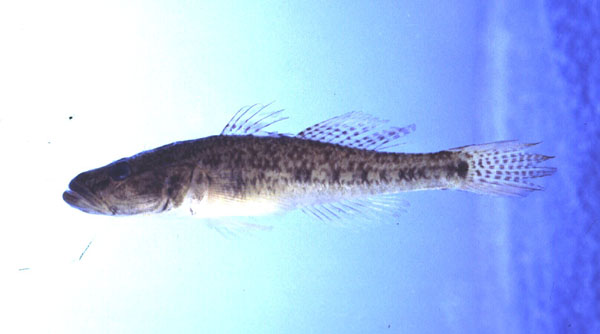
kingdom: Animalia
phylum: Chordata
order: Perciformes
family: Gobiidae
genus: Glossogobius
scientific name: Glossogobius callidus
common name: River goby
